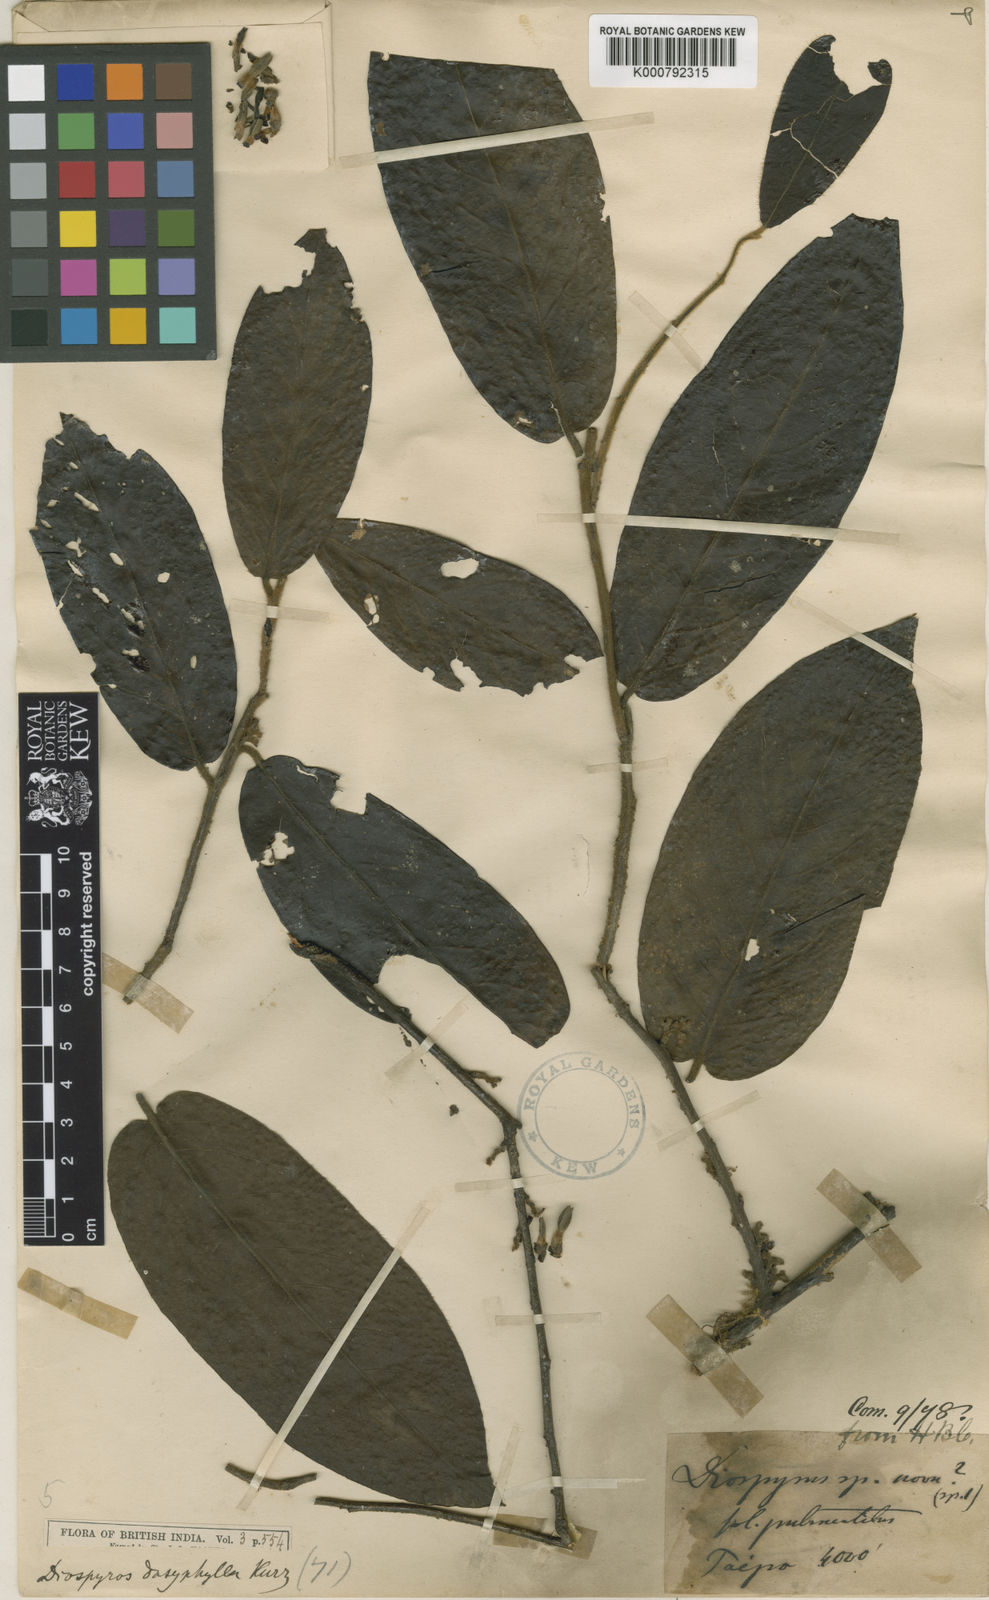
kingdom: Plantae
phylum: Tracheophyta
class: Magnoliopsida
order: Ericales
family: Ebenaceae
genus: Diospyros
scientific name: Diospyros dasyphylla
